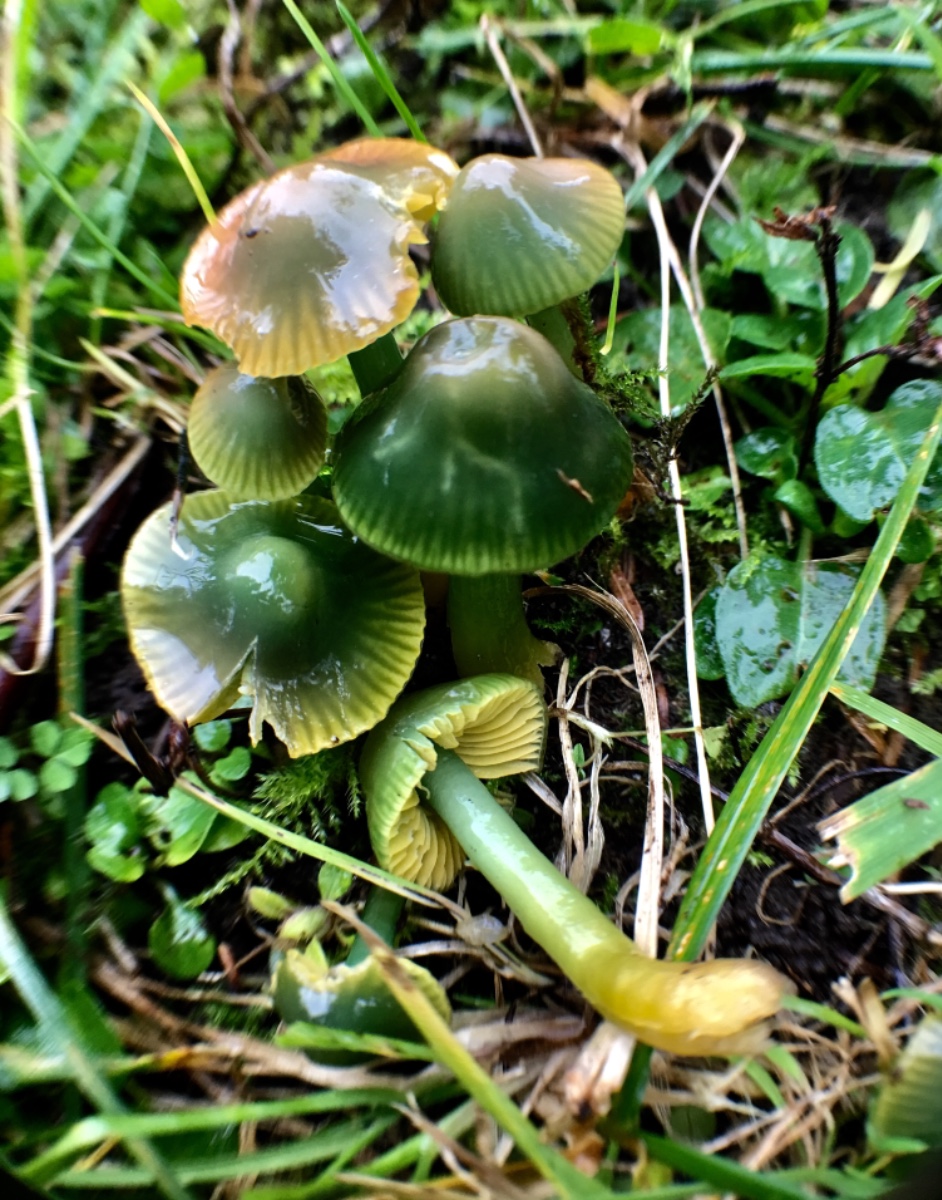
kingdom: Fungi
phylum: Basidiomycota
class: Agaricomycetes
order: Agaricales
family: Hygrophoraceae
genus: Gliophorus
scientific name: Gliophorus psittacinus
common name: papegøje-vokshat
